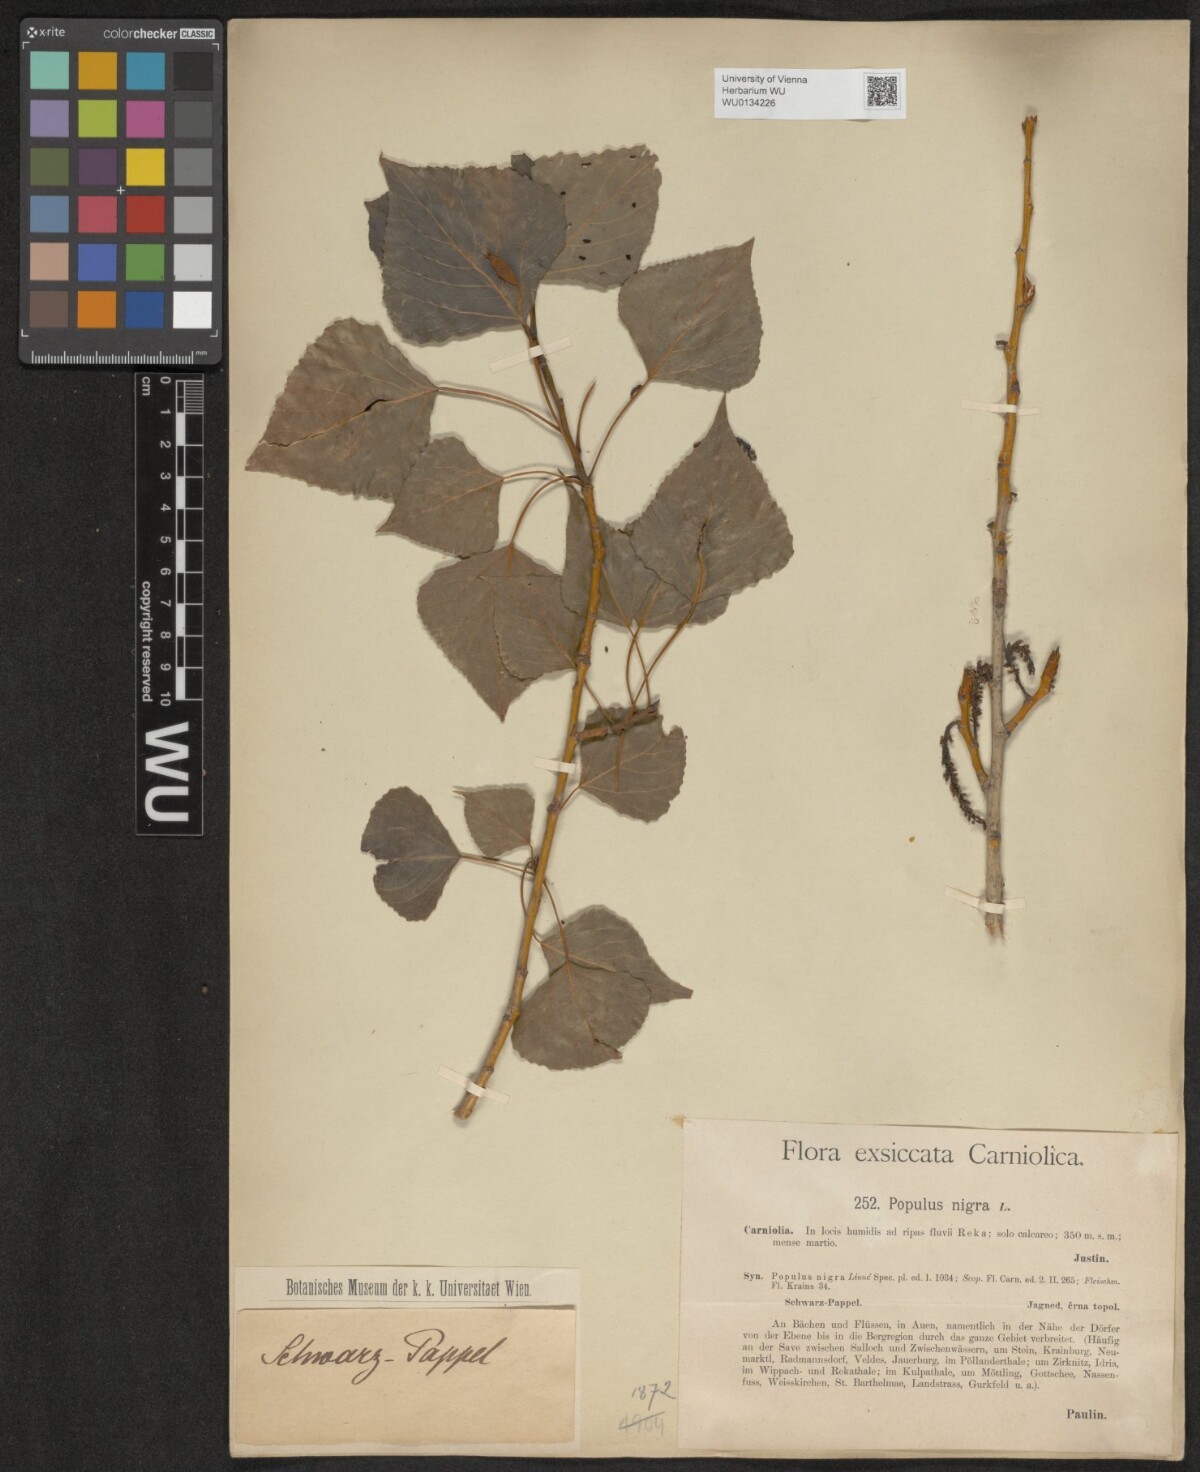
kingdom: Plantae
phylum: Tracheophyta
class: Magnoliopsida
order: Malpighiales
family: Salicaceae
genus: Populus
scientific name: Populus nigra
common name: Black poplar
